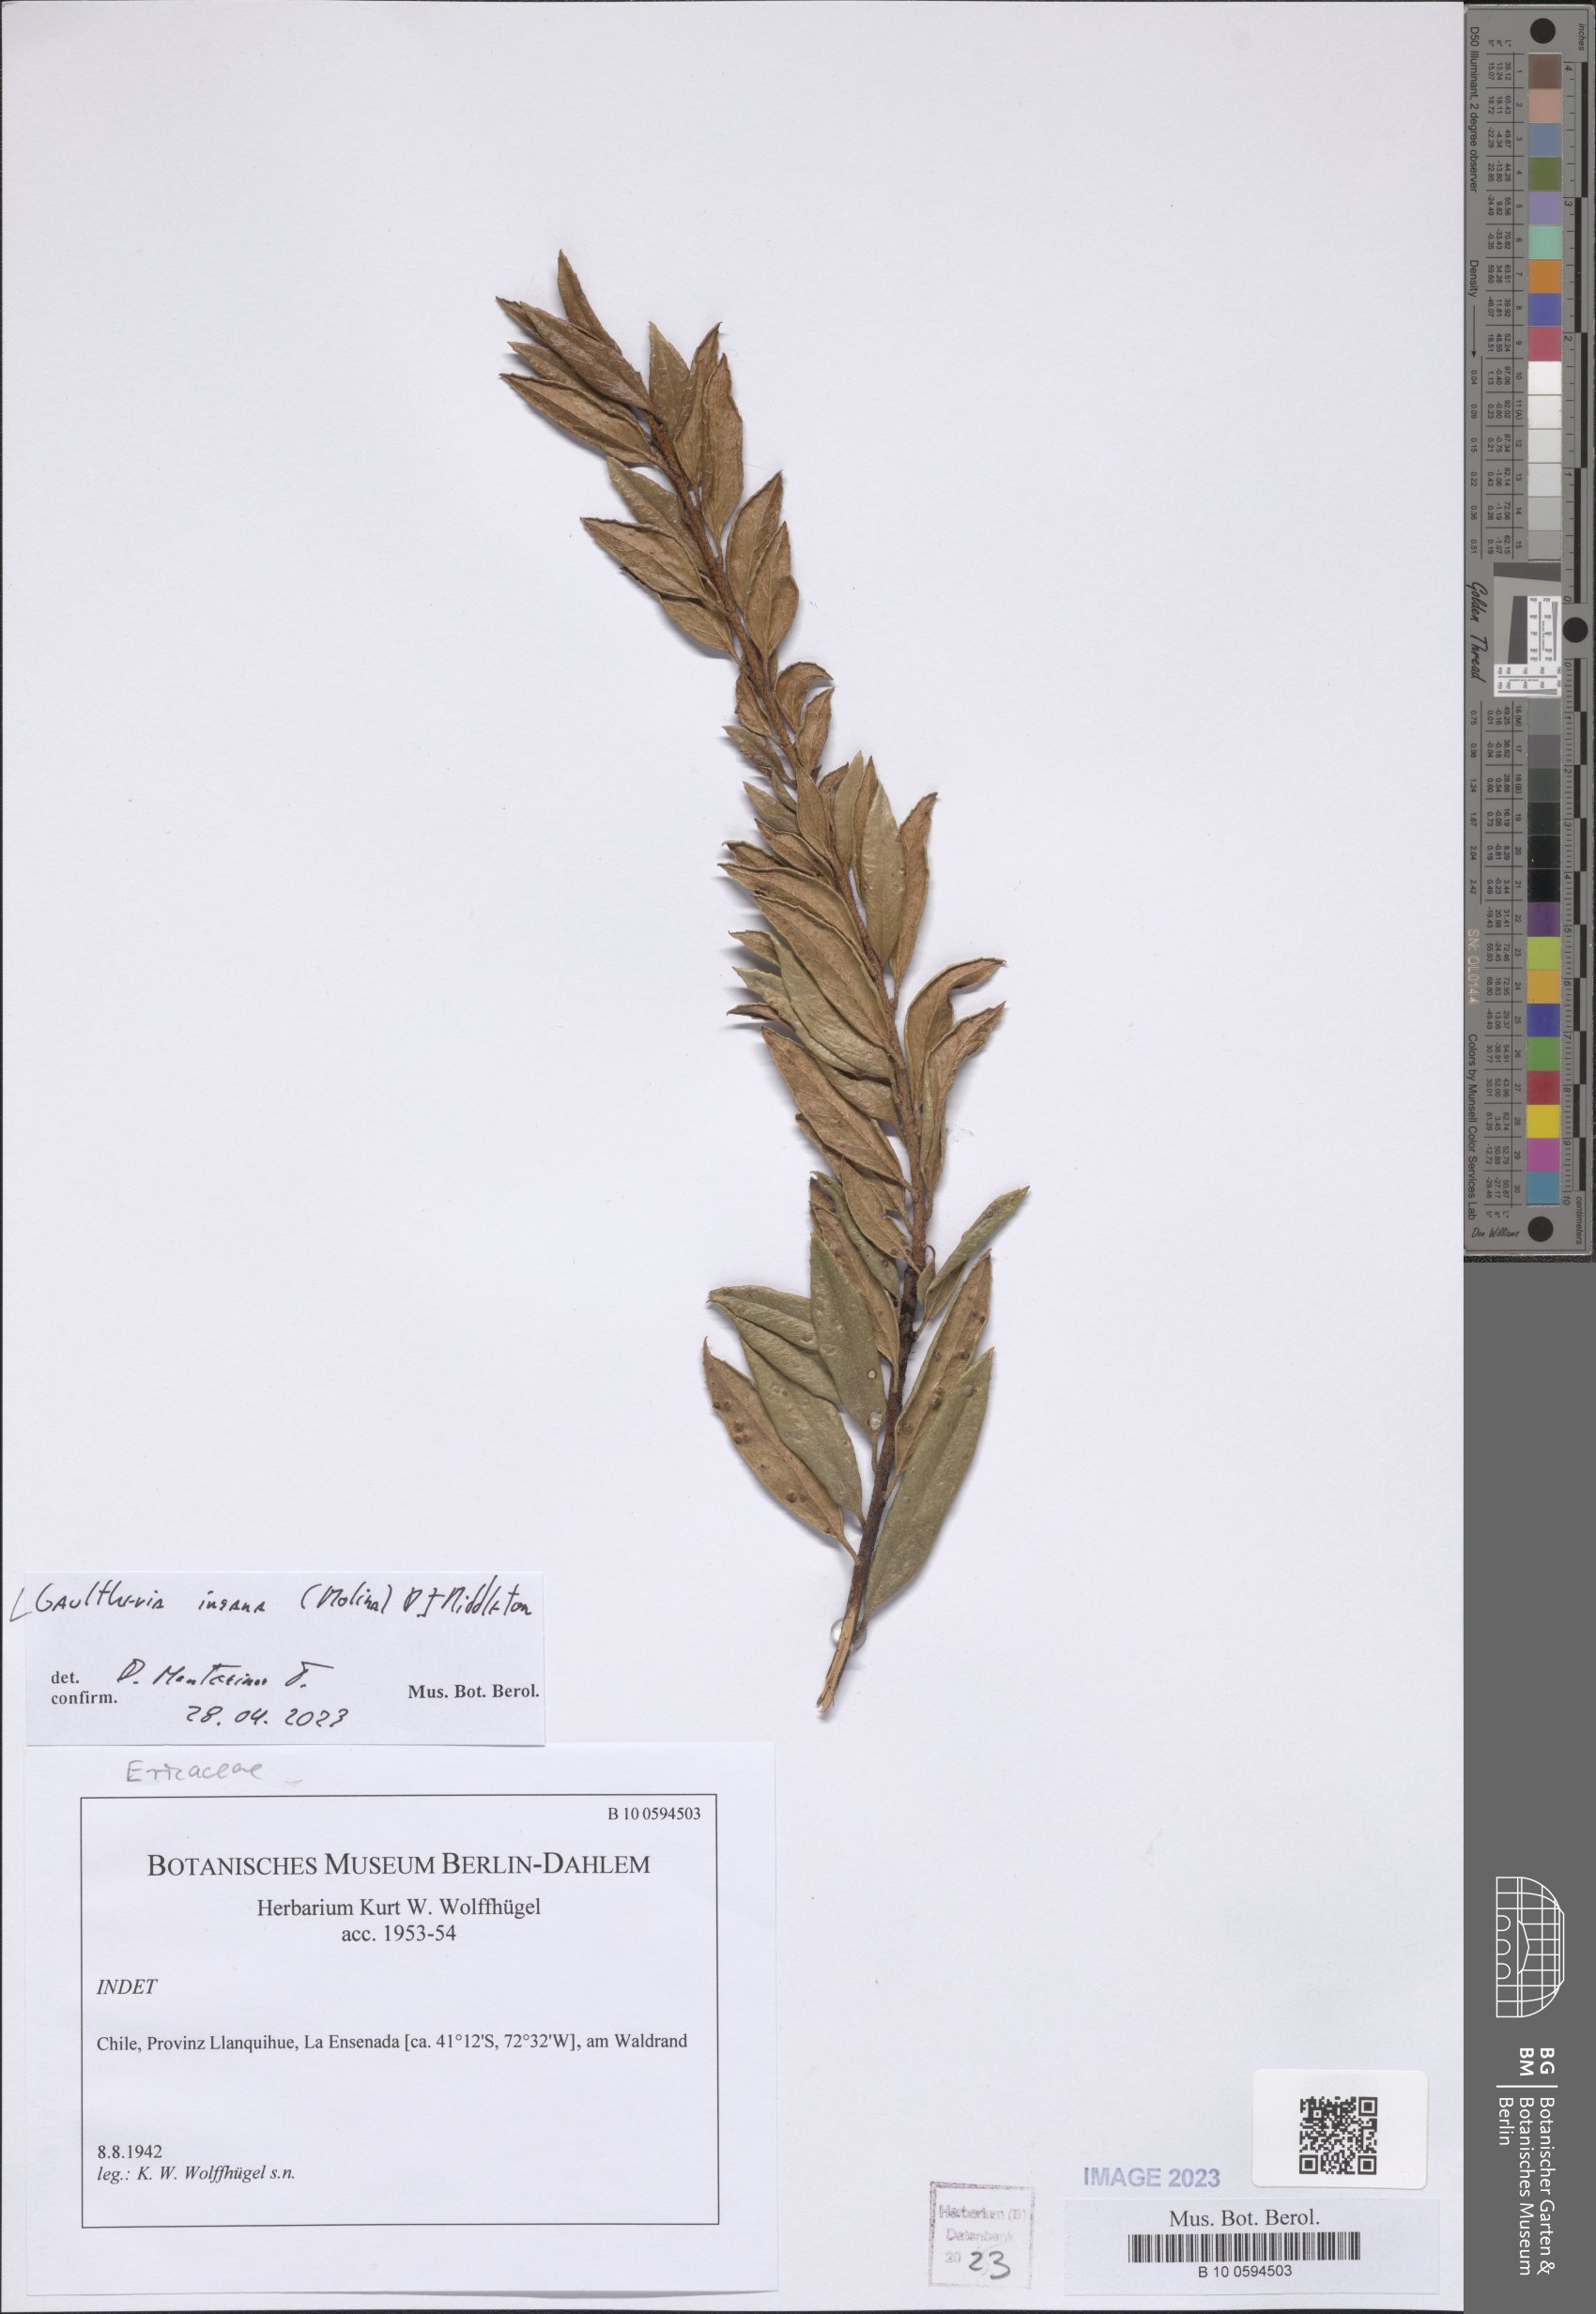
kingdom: Plantae
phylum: Tracheophyta
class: Magnoliopsida
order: Ericales
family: Ericaceae
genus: Gaultheria
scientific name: Gaultheria insana
